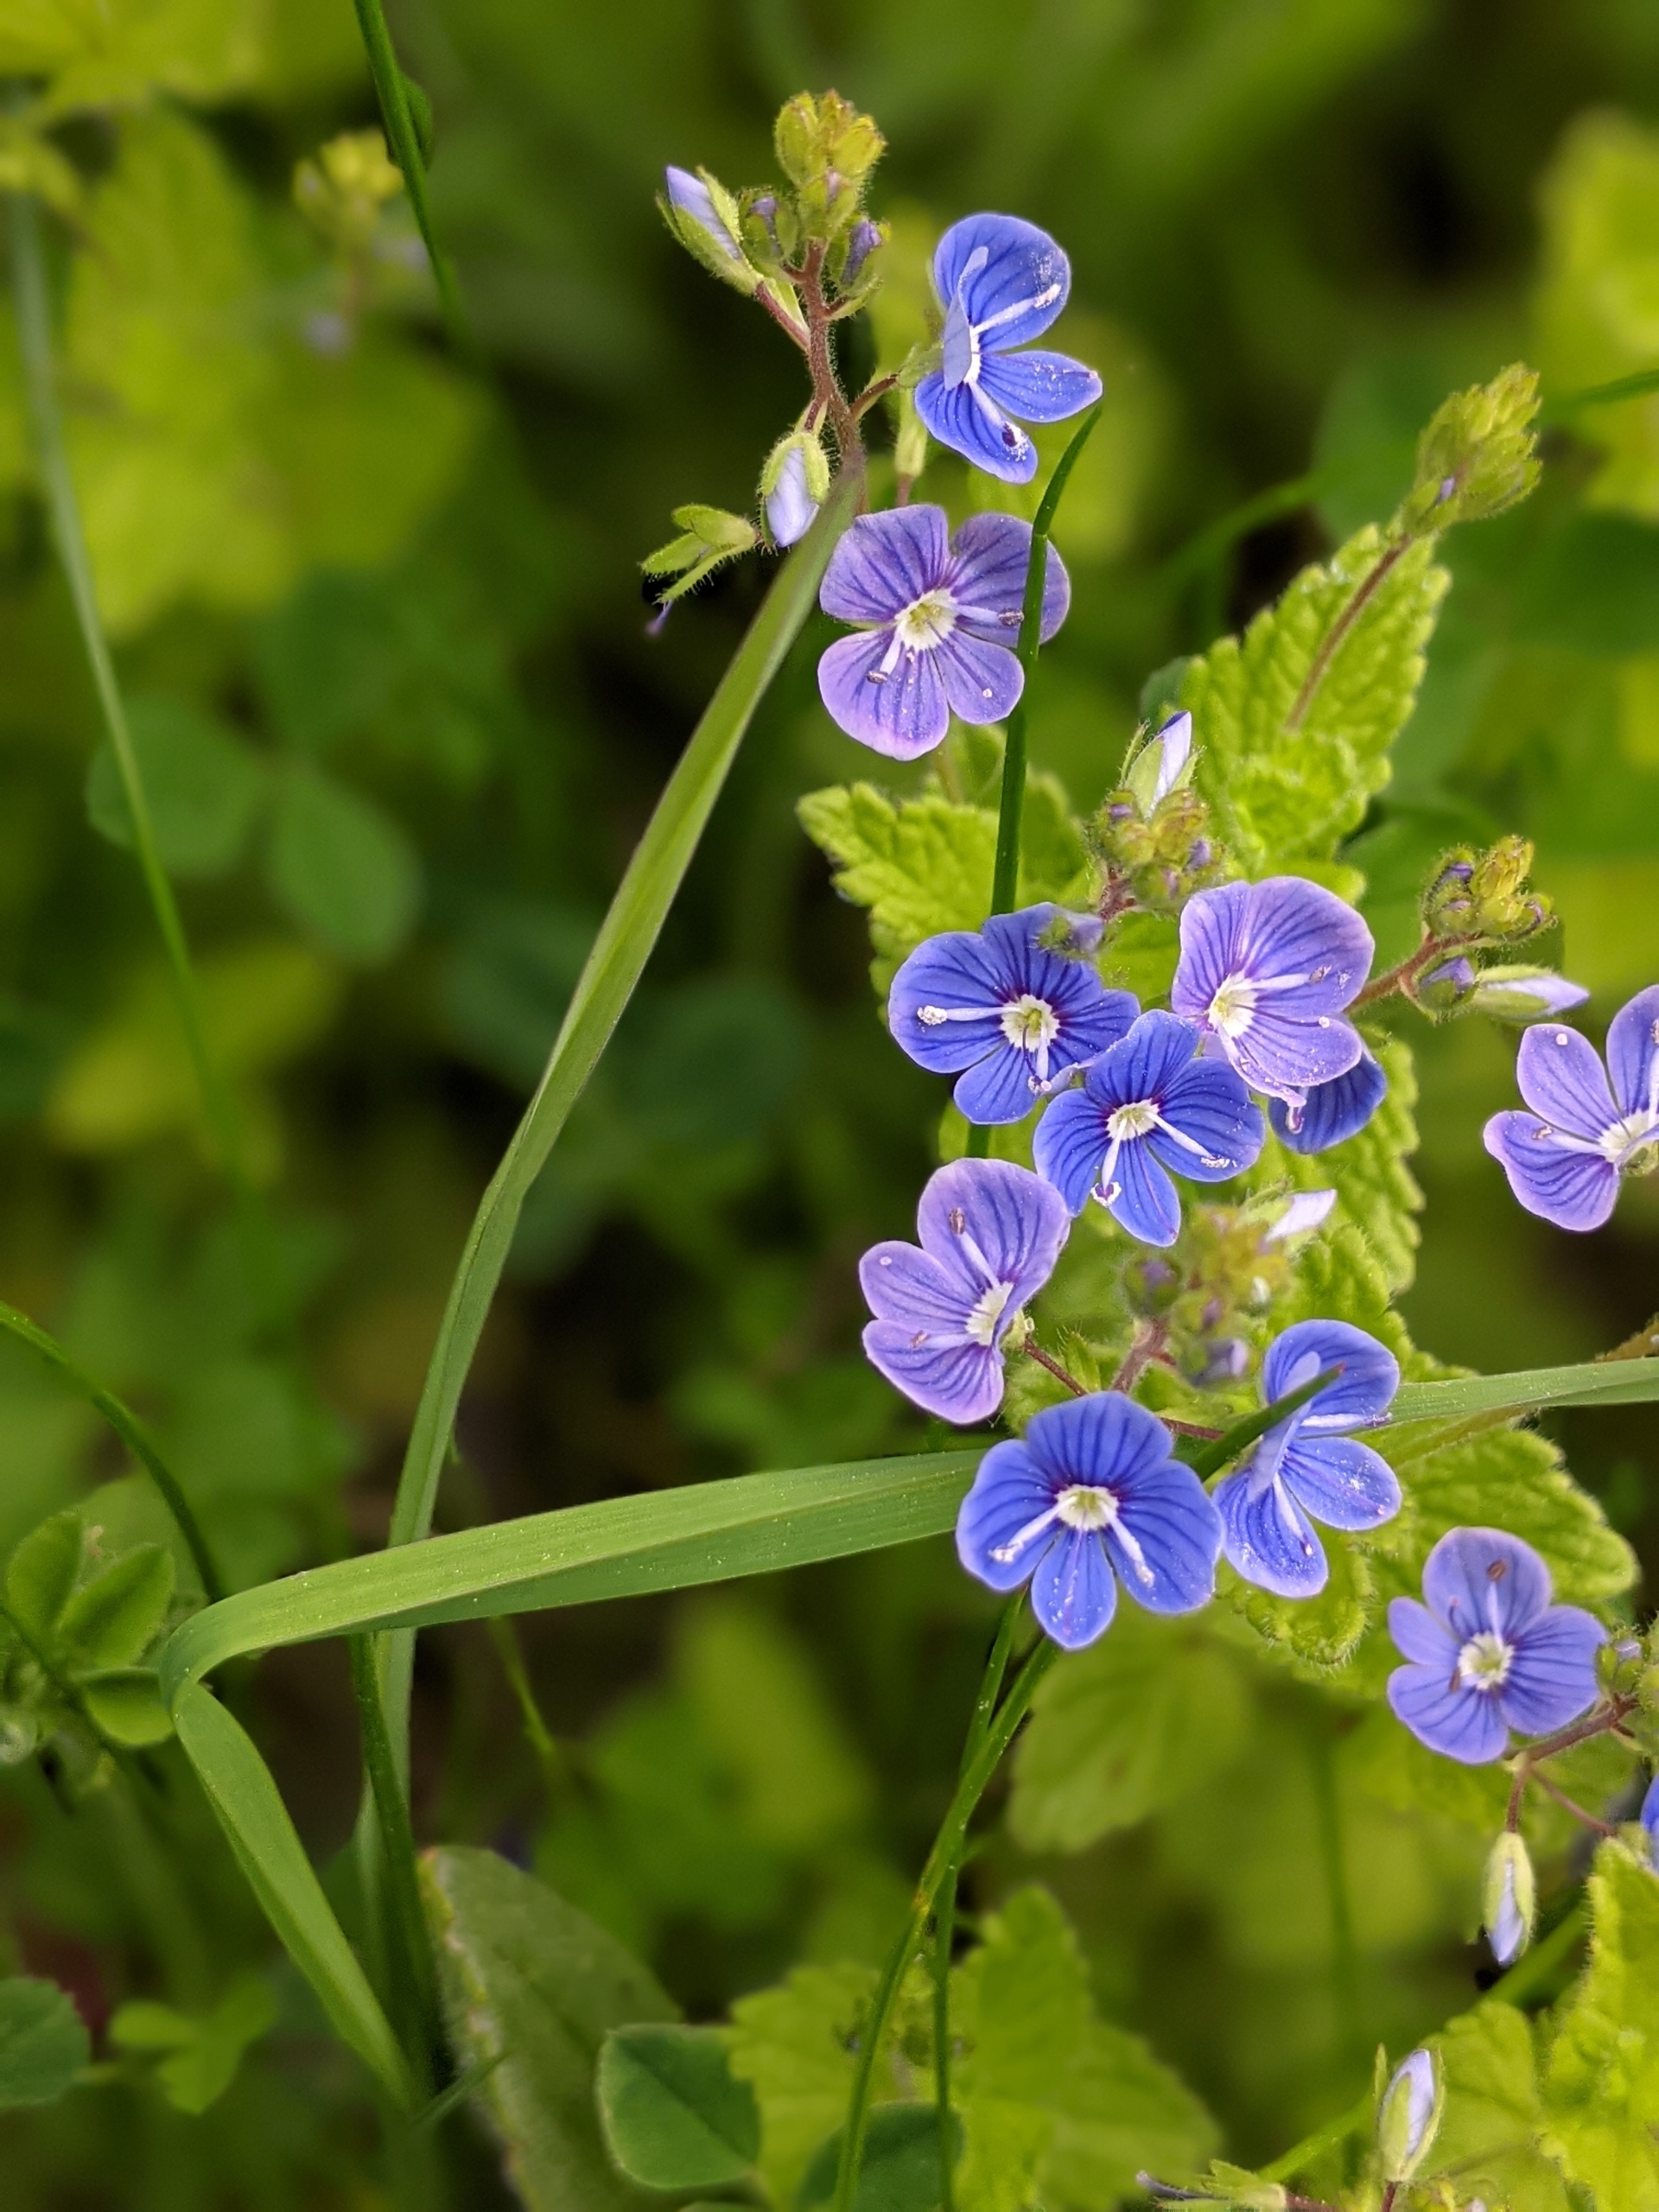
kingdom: Plantae
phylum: Tracheophyta
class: Magnoliopsida
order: Lamiales
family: Plantaginaceae
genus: Veronica
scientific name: Veronica chamaedrys
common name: Tveskægget ærenpris
